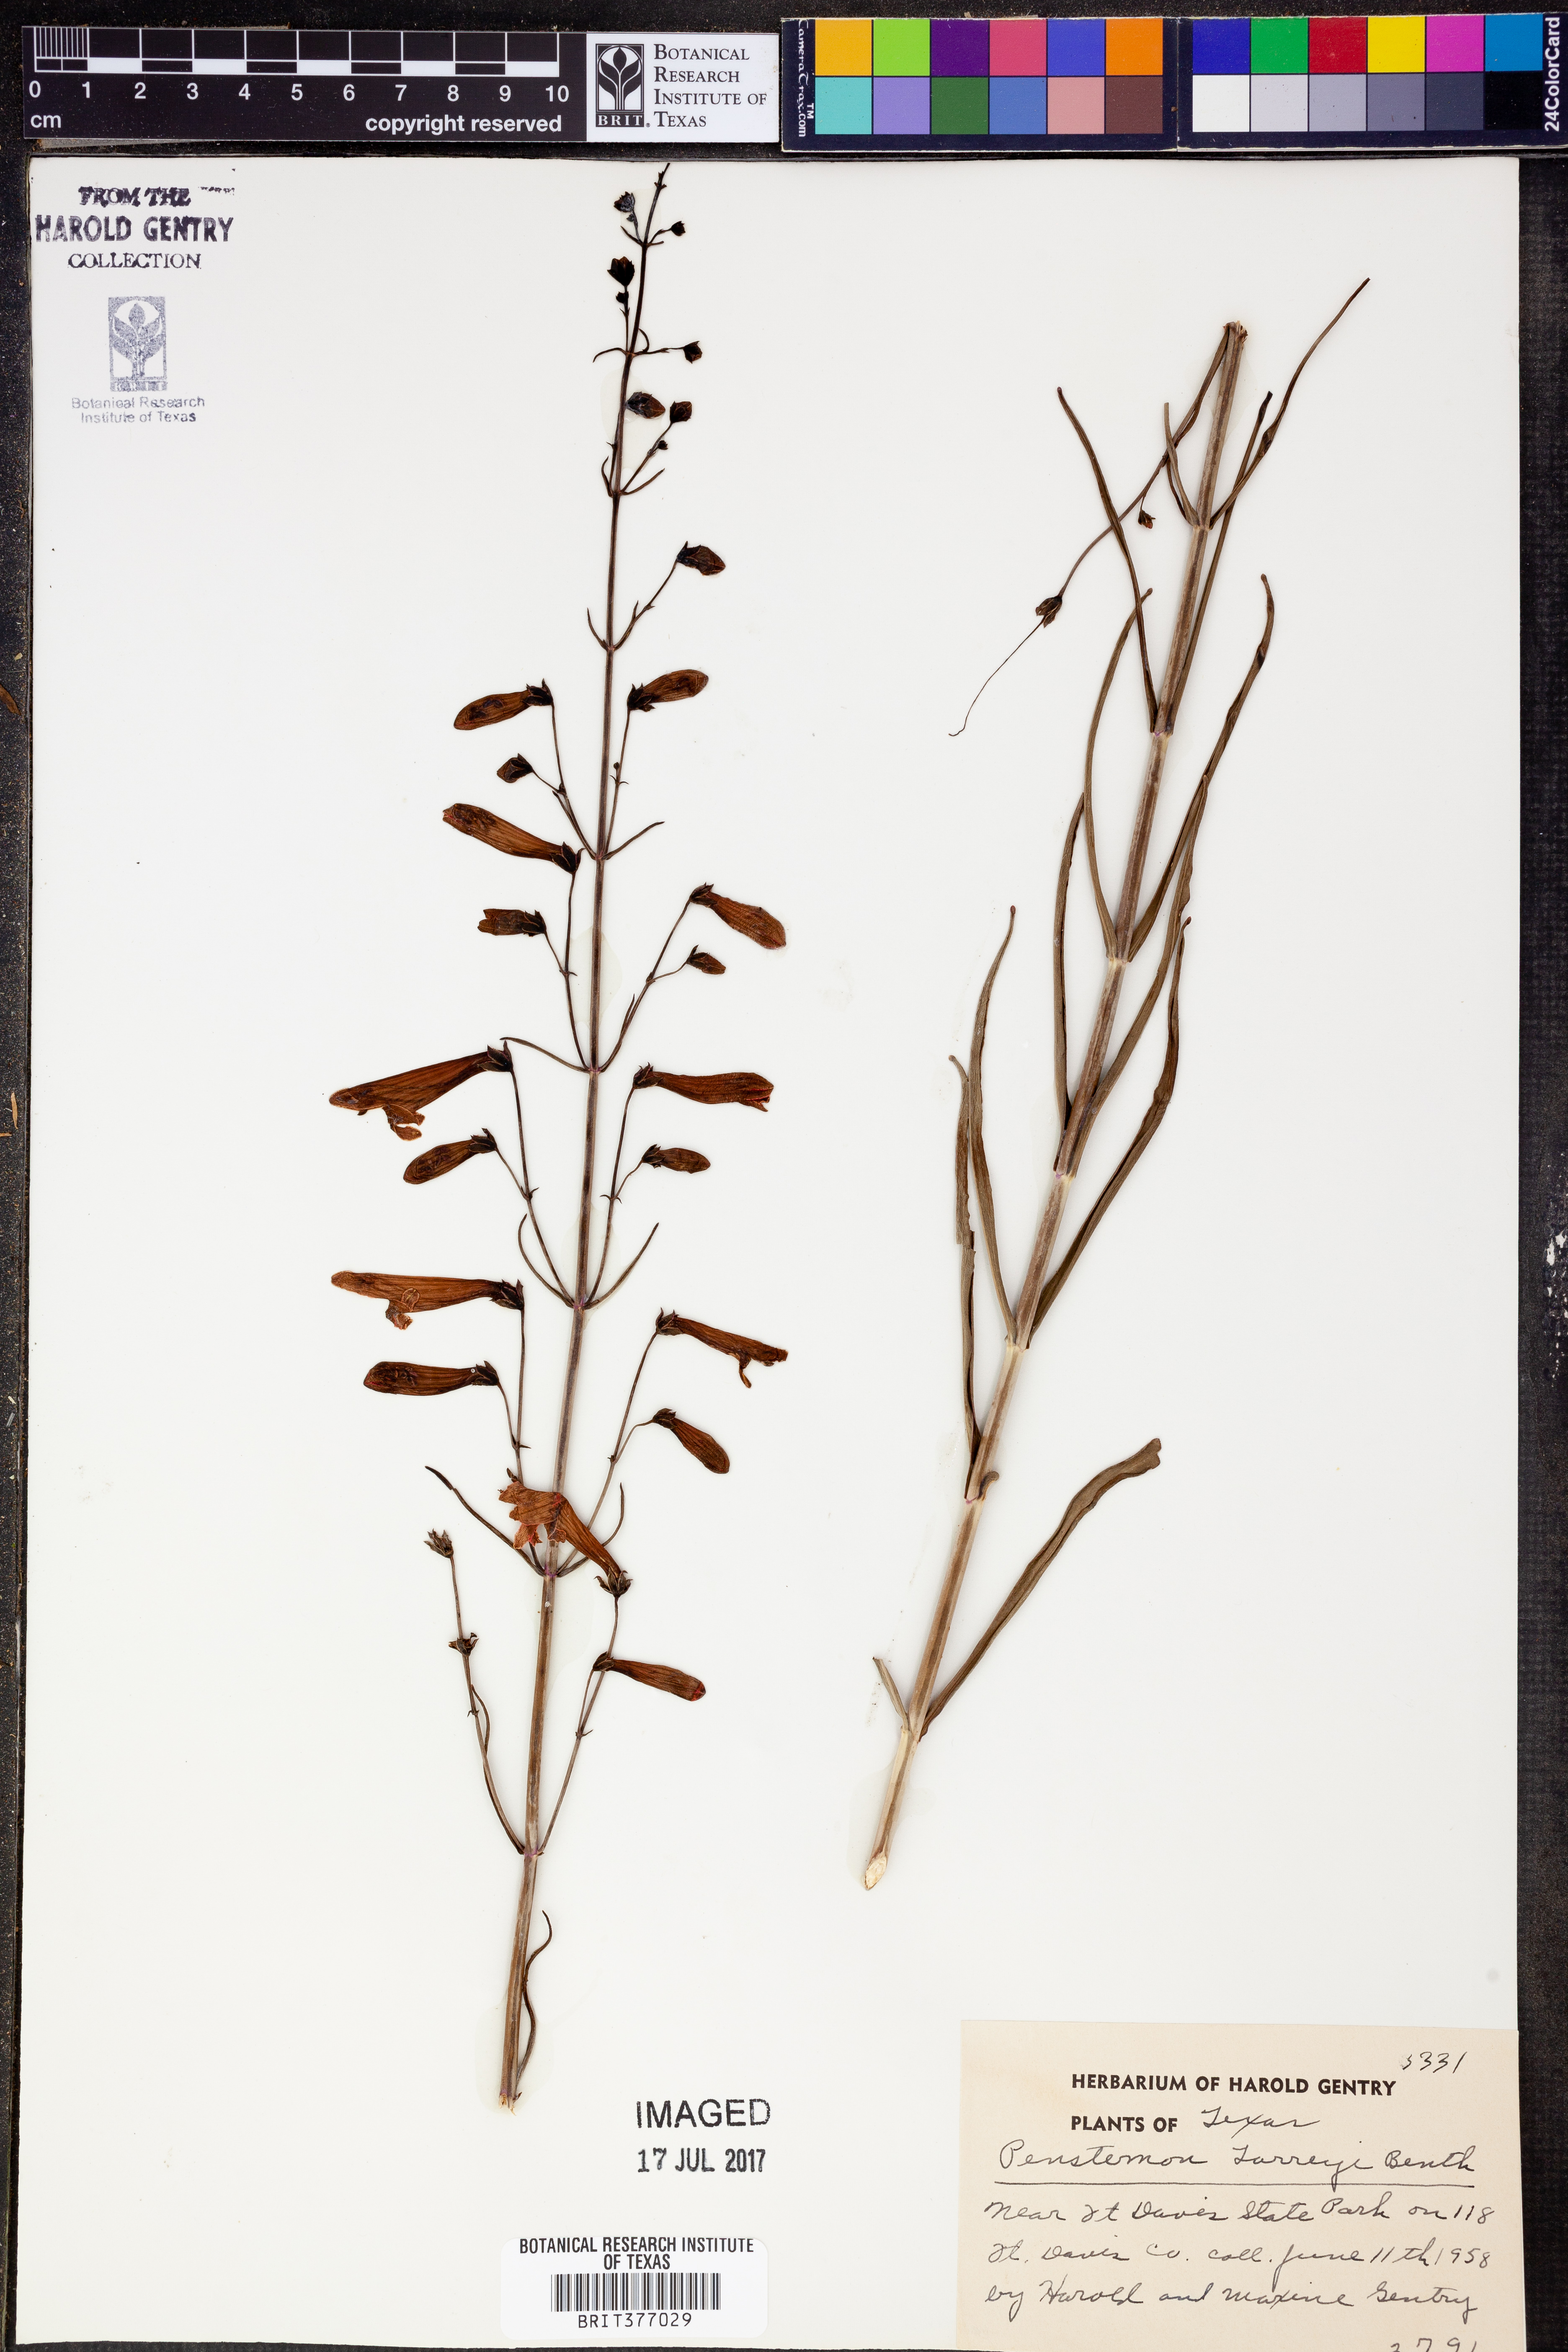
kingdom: Plantae
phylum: Tracheophyta
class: Magnoliopsida
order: Lamiales
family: Plantaginaceae
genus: Penstemon
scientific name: Penstemon barbatus
